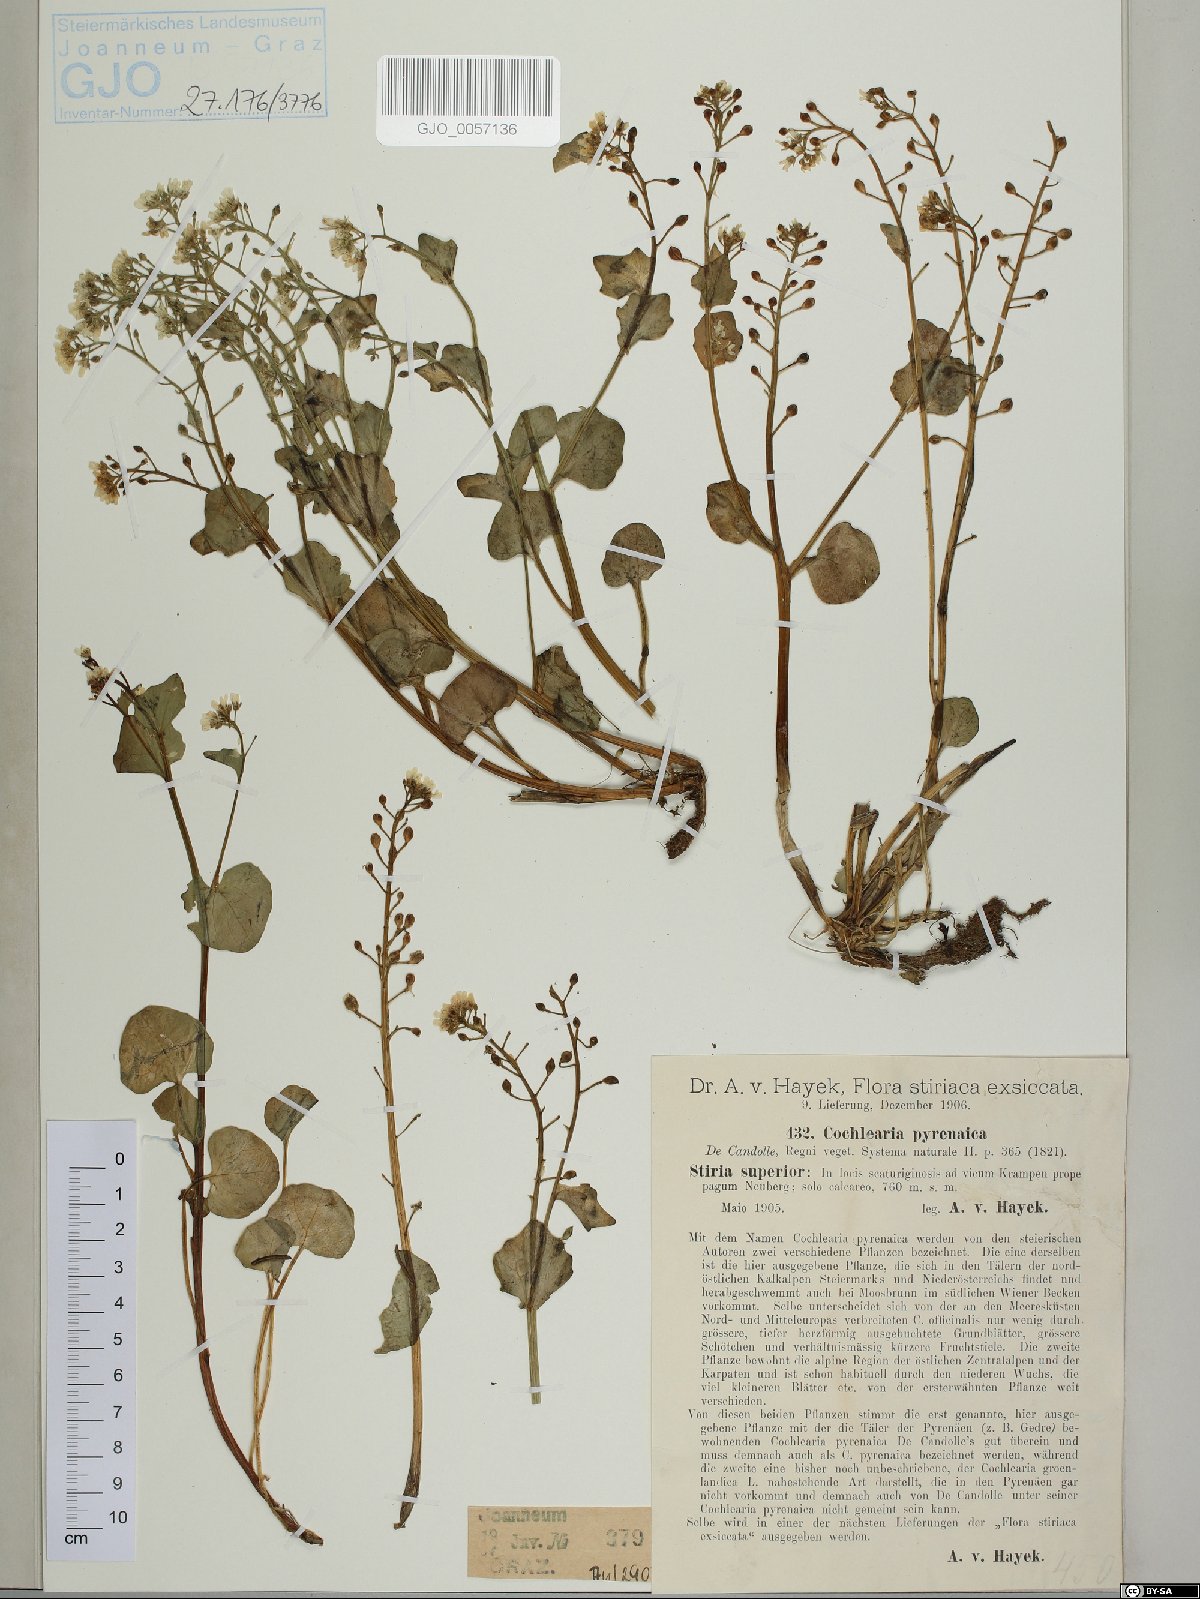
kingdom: Plantae
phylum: Tracheophyta
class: Magnoliopsida
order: Brassicales
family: Brassicaceae
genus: Cochlearia
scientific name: Cochlearia pyrenaica
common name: Upland scurvy-grass
